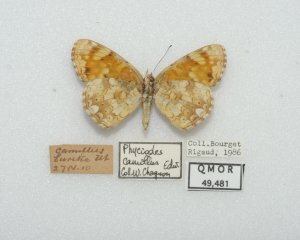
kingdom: Animalia
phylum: Arthropoda
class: Insecta
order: Lepidoptera
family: Nymphalidae
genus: Phyciodes
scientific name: Phyciodes tharos
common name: Field Crescent
